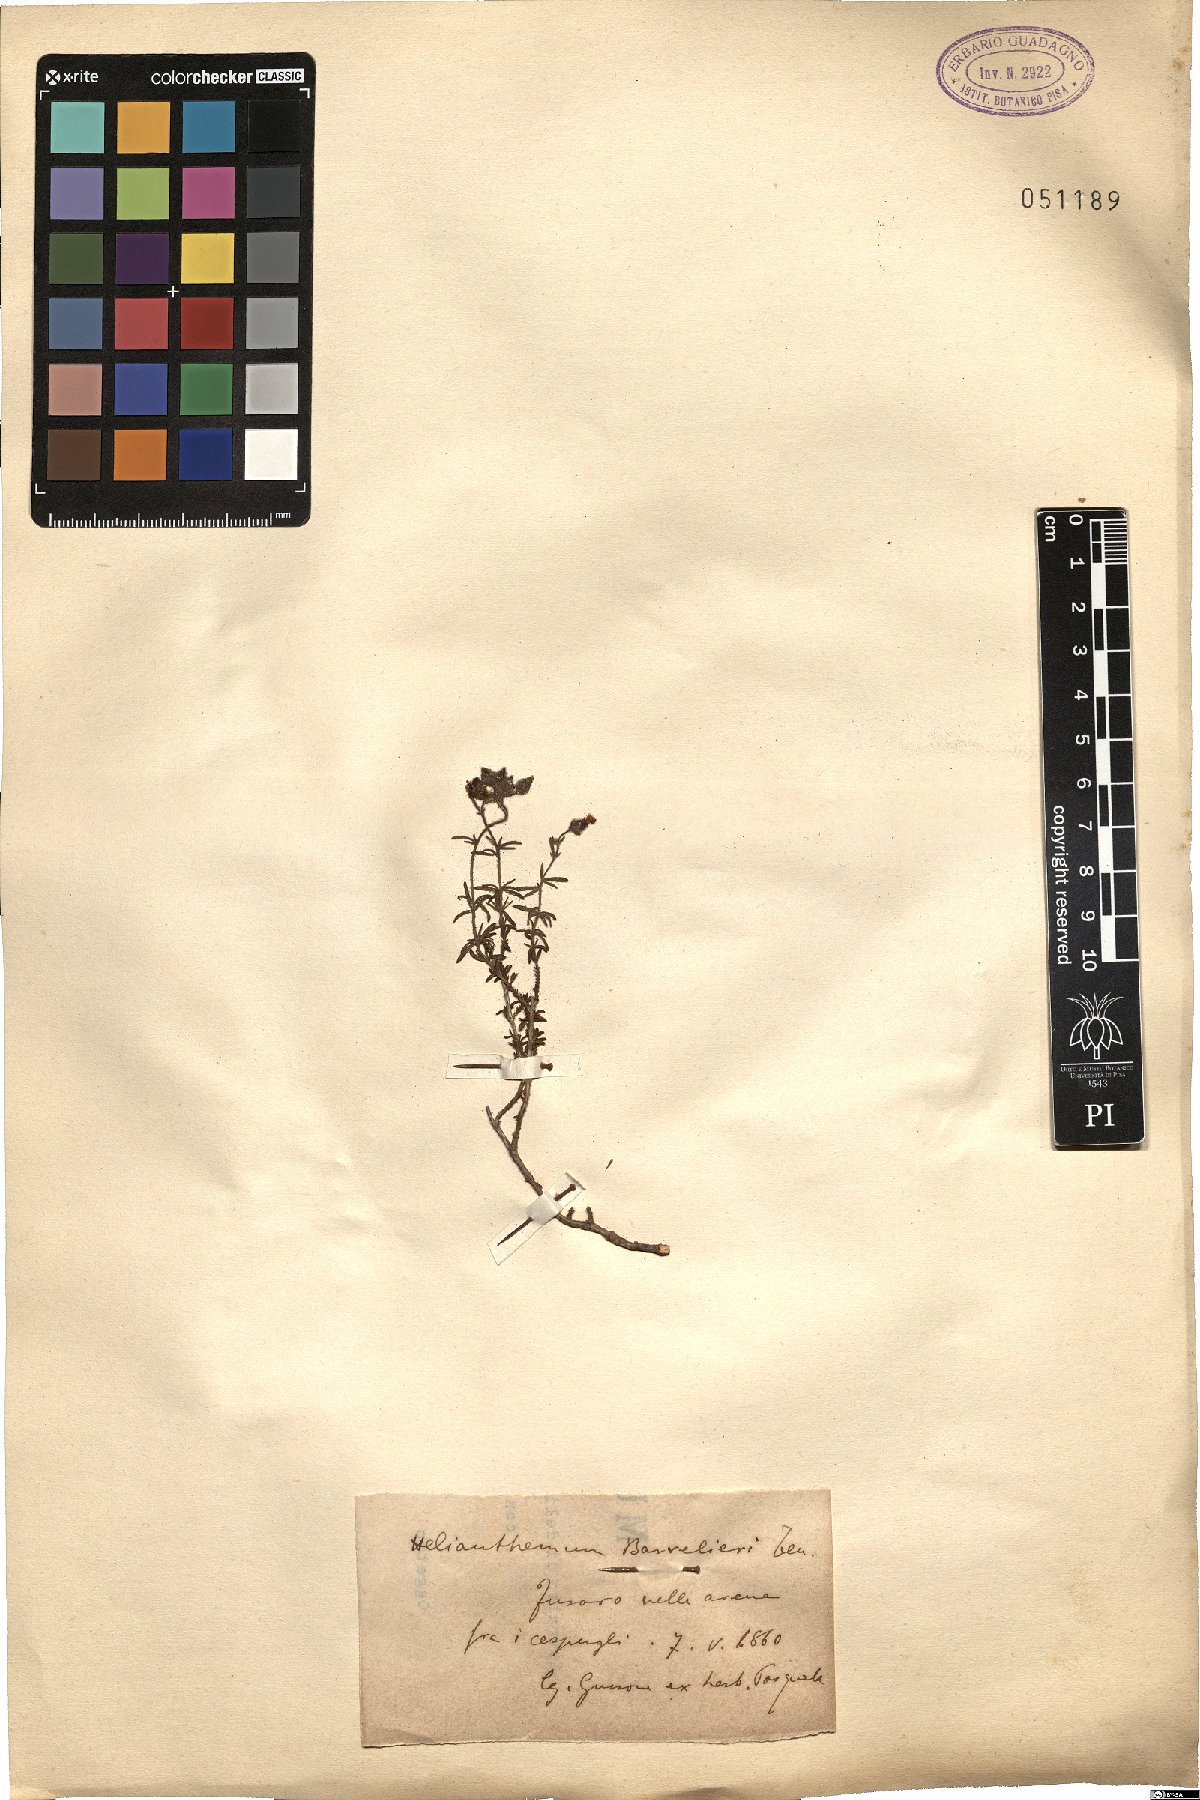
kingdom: Plantae
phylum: Tracheophyta
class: Magnoliopsida
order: Malvales
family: Cistaceae
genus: Fumana
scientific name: Fumana thymifolia
